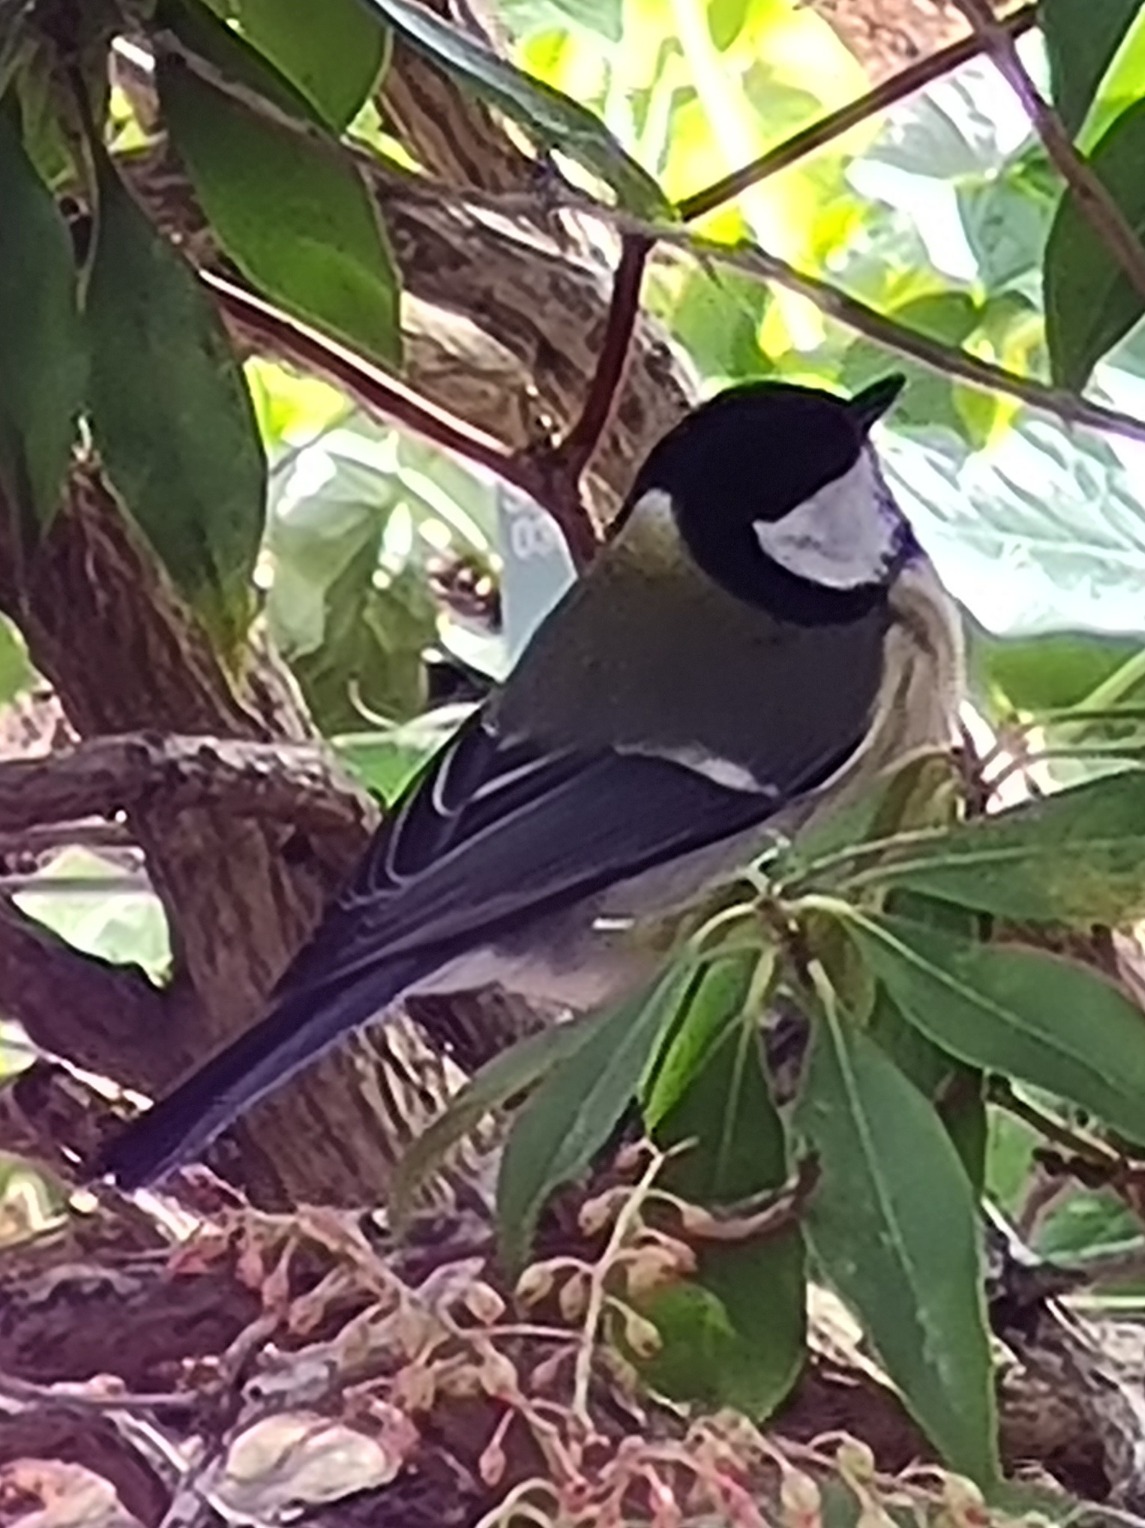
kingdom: Animalia
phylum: Chordata
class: Aves
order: Passeriformes
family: Paridae
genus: Parus
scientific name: Parus major
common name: Musvit
